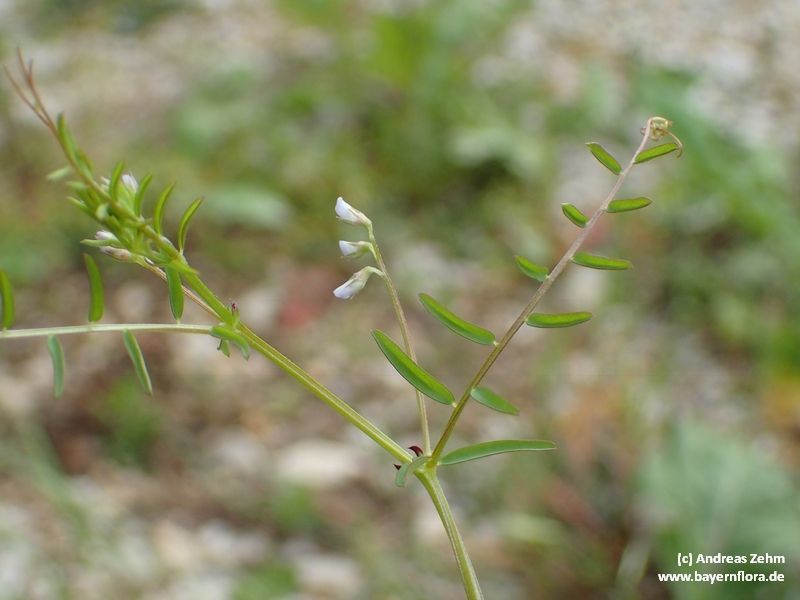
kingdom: Plantae
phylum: Tracheophyta
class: Magnoliopsida
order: Fabales
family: Fabaceae
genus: Vicia
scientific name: Vicia tetrasperma
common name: Smooth tare
